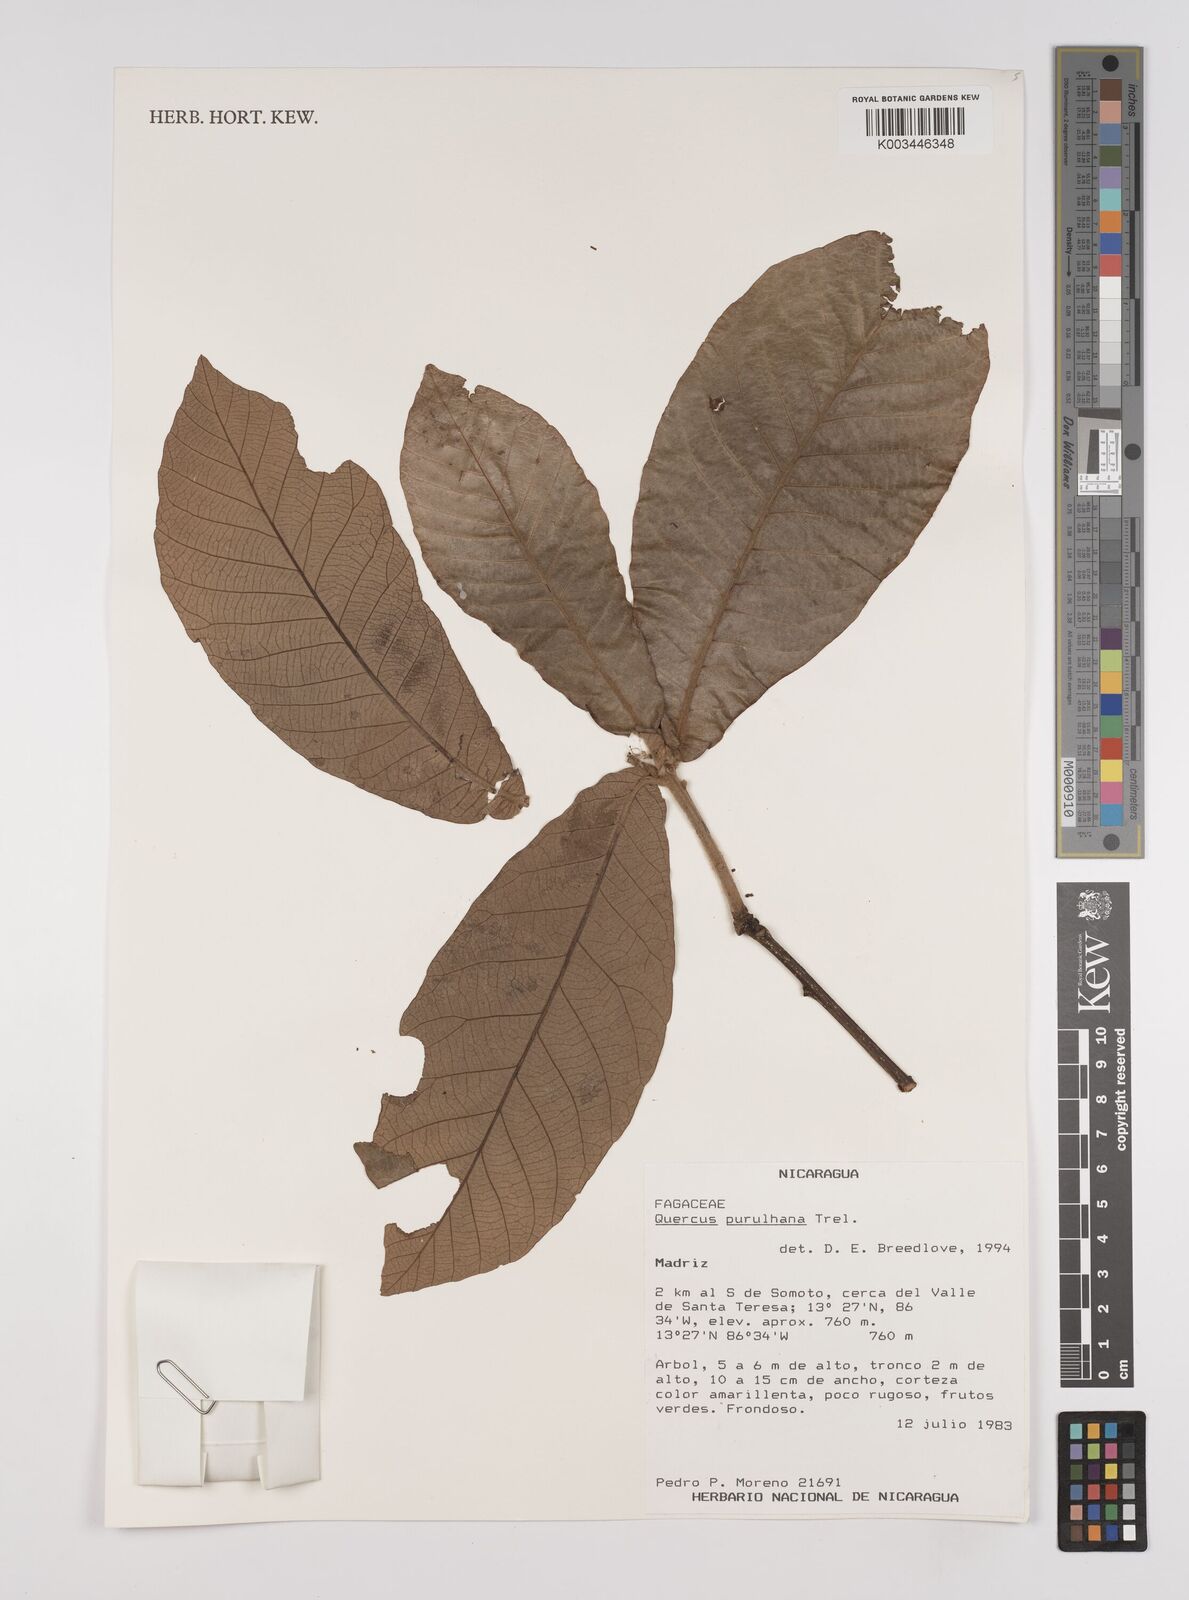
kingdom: Plantae
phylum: Tracheophyta
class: Magnoliopsida
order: Fagales
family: Fagaceae
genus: Quercus
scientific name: Quercus purulhana
